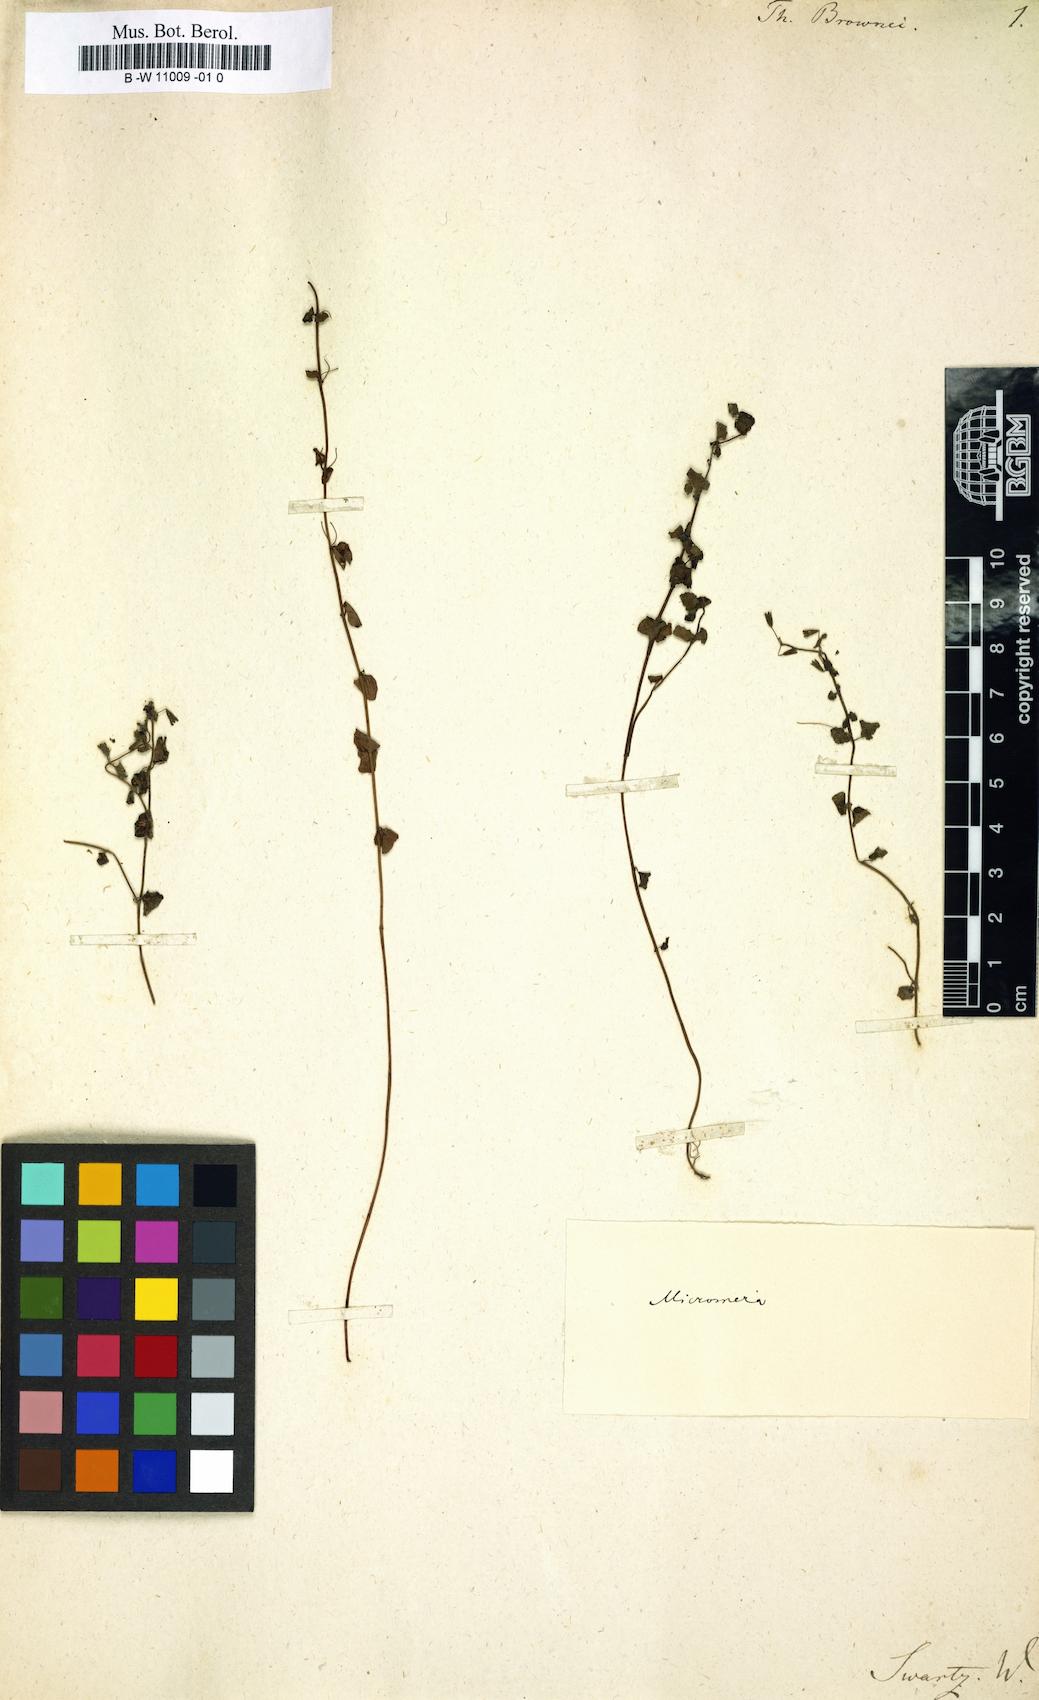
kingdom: Plantae
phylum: Tracheophyta
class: Magnoliopsida
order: Lamiales
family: Lamiaceae
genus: Clinopodium
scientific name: Clinopodium brownei
